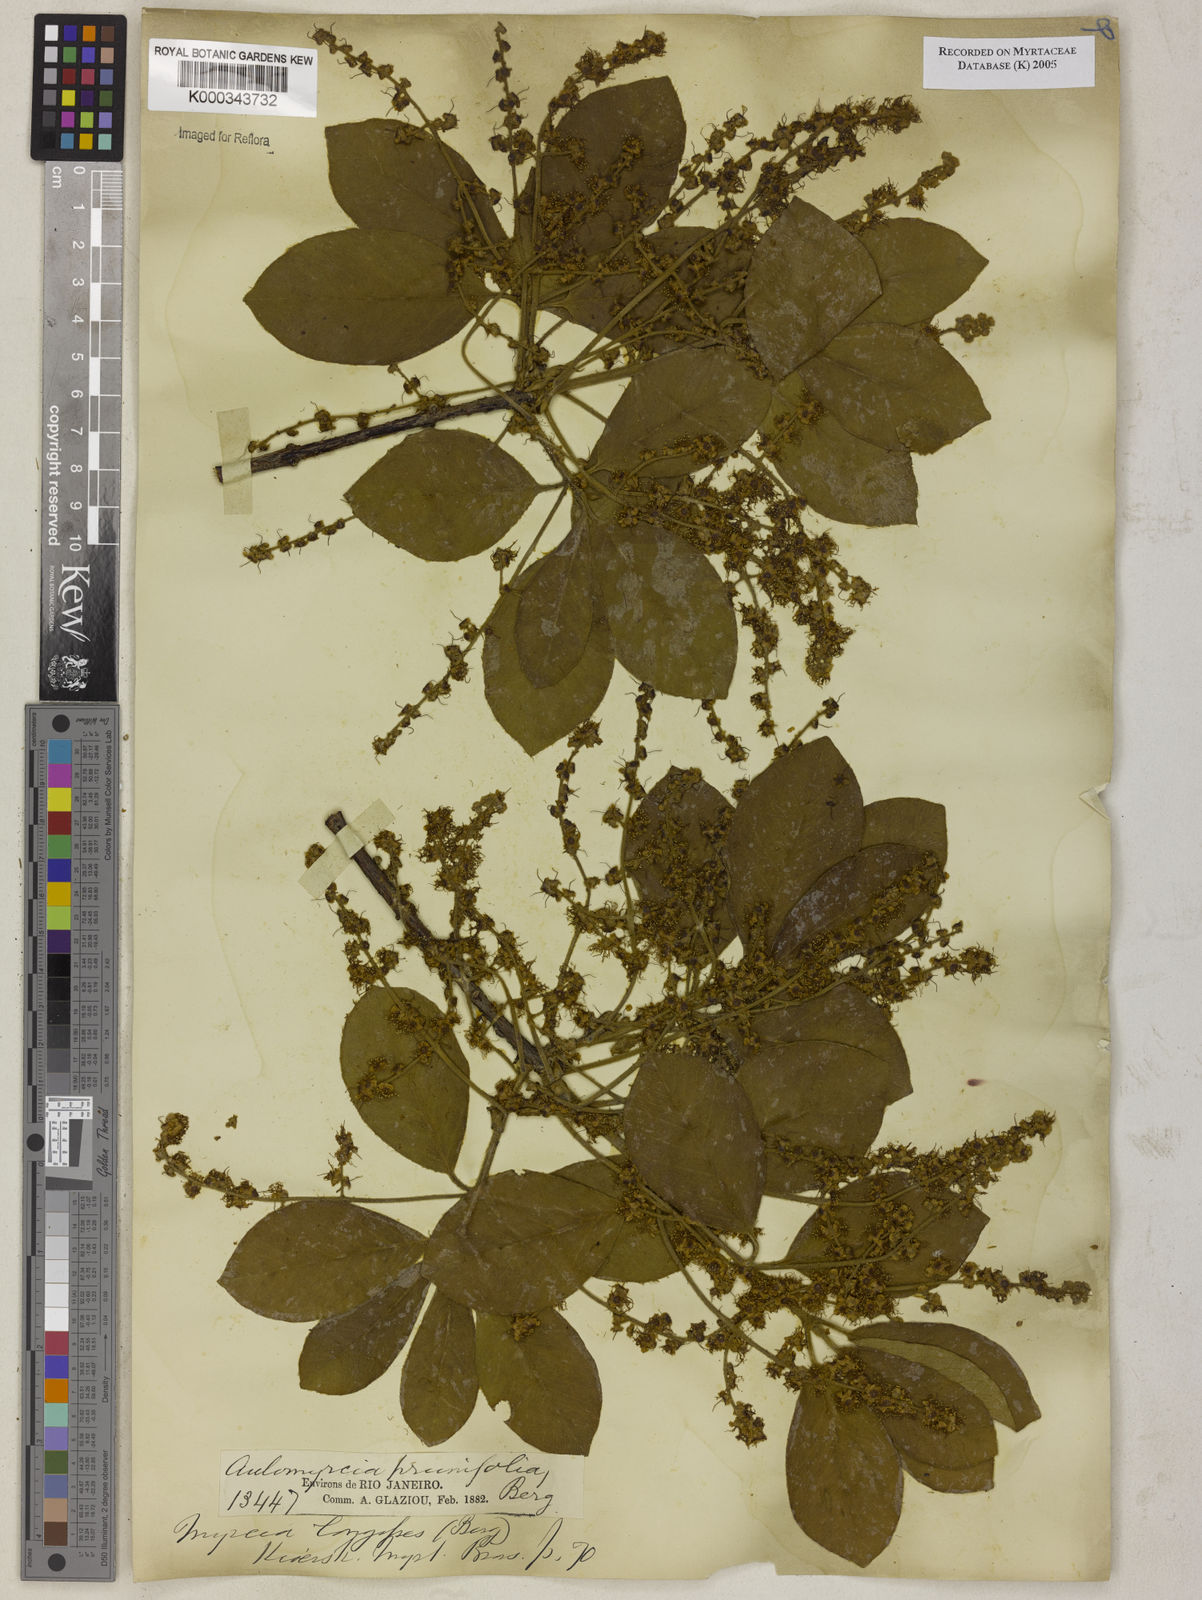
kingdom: Plantae
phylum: Tracheophyta
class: Magnoliopsida
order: Myrtales
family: Myrtaceae
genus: Myrcia
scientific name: Myrcia tomentosa
